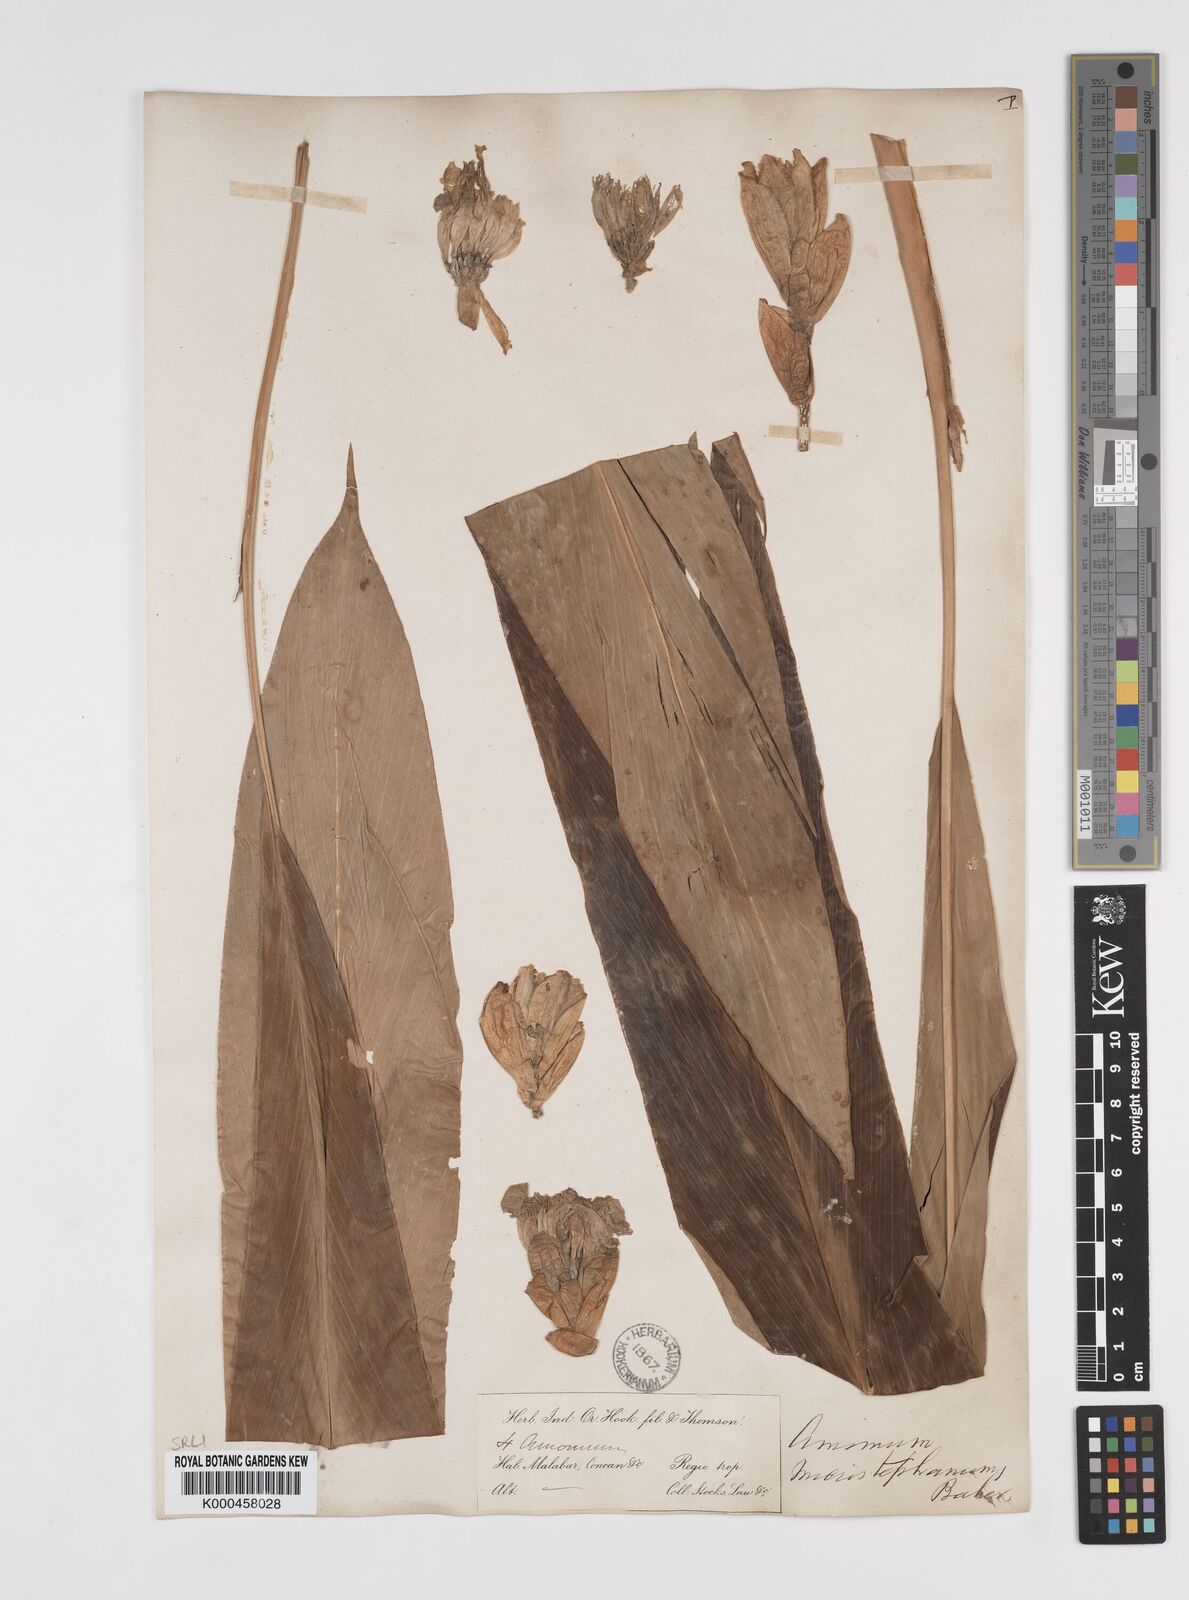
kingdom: Plantae
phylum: Tracheophyta
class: Liliopsida
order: Zingiberales
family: Zingiberaceae
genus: Amomum
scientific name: Amomum pterocarpum
